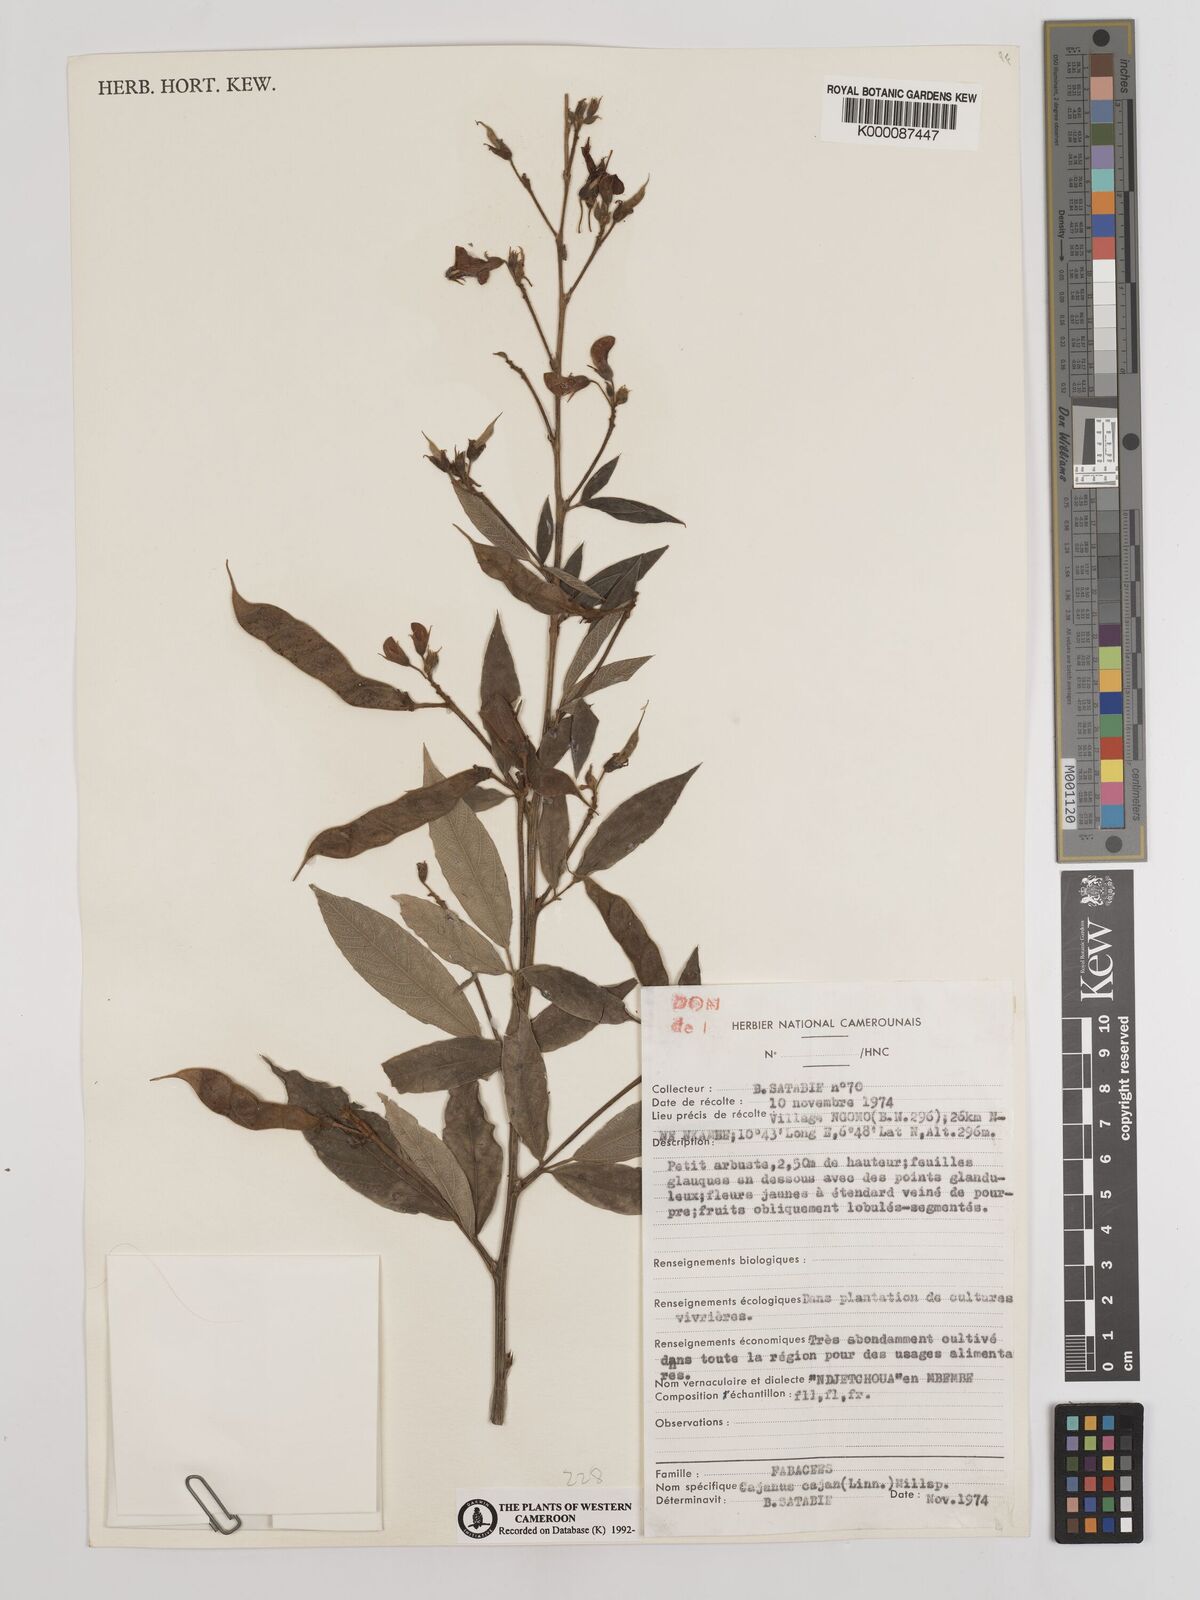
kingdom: Plantae
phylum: Tracheophyta
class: Magnoliopsida
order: Fabales
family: Fabaceae
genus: Cajanus
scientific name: Cajanus
